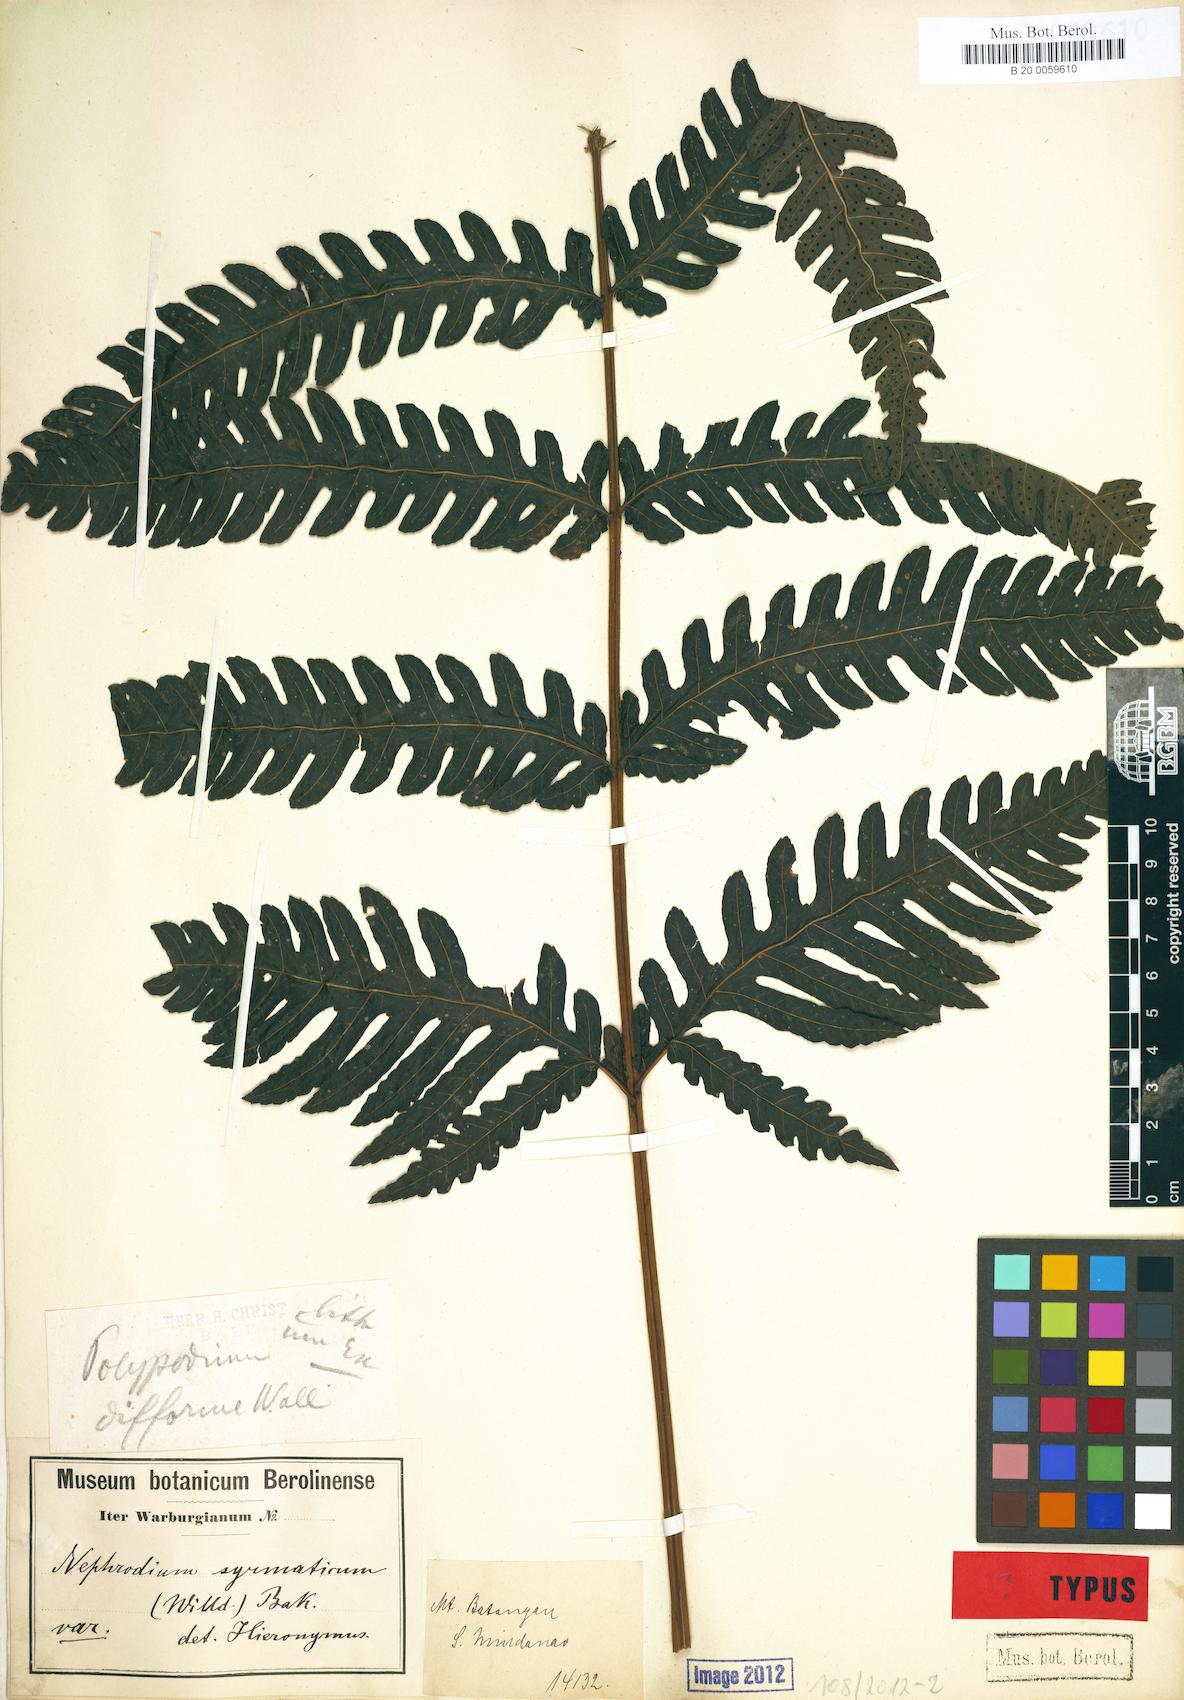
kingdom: Plantae
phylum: Tracheophyta
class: Polypodiopsida
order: Polypodiales
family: Dryopteridaceae
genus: Polystichum
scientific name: Polystichum multifidum
